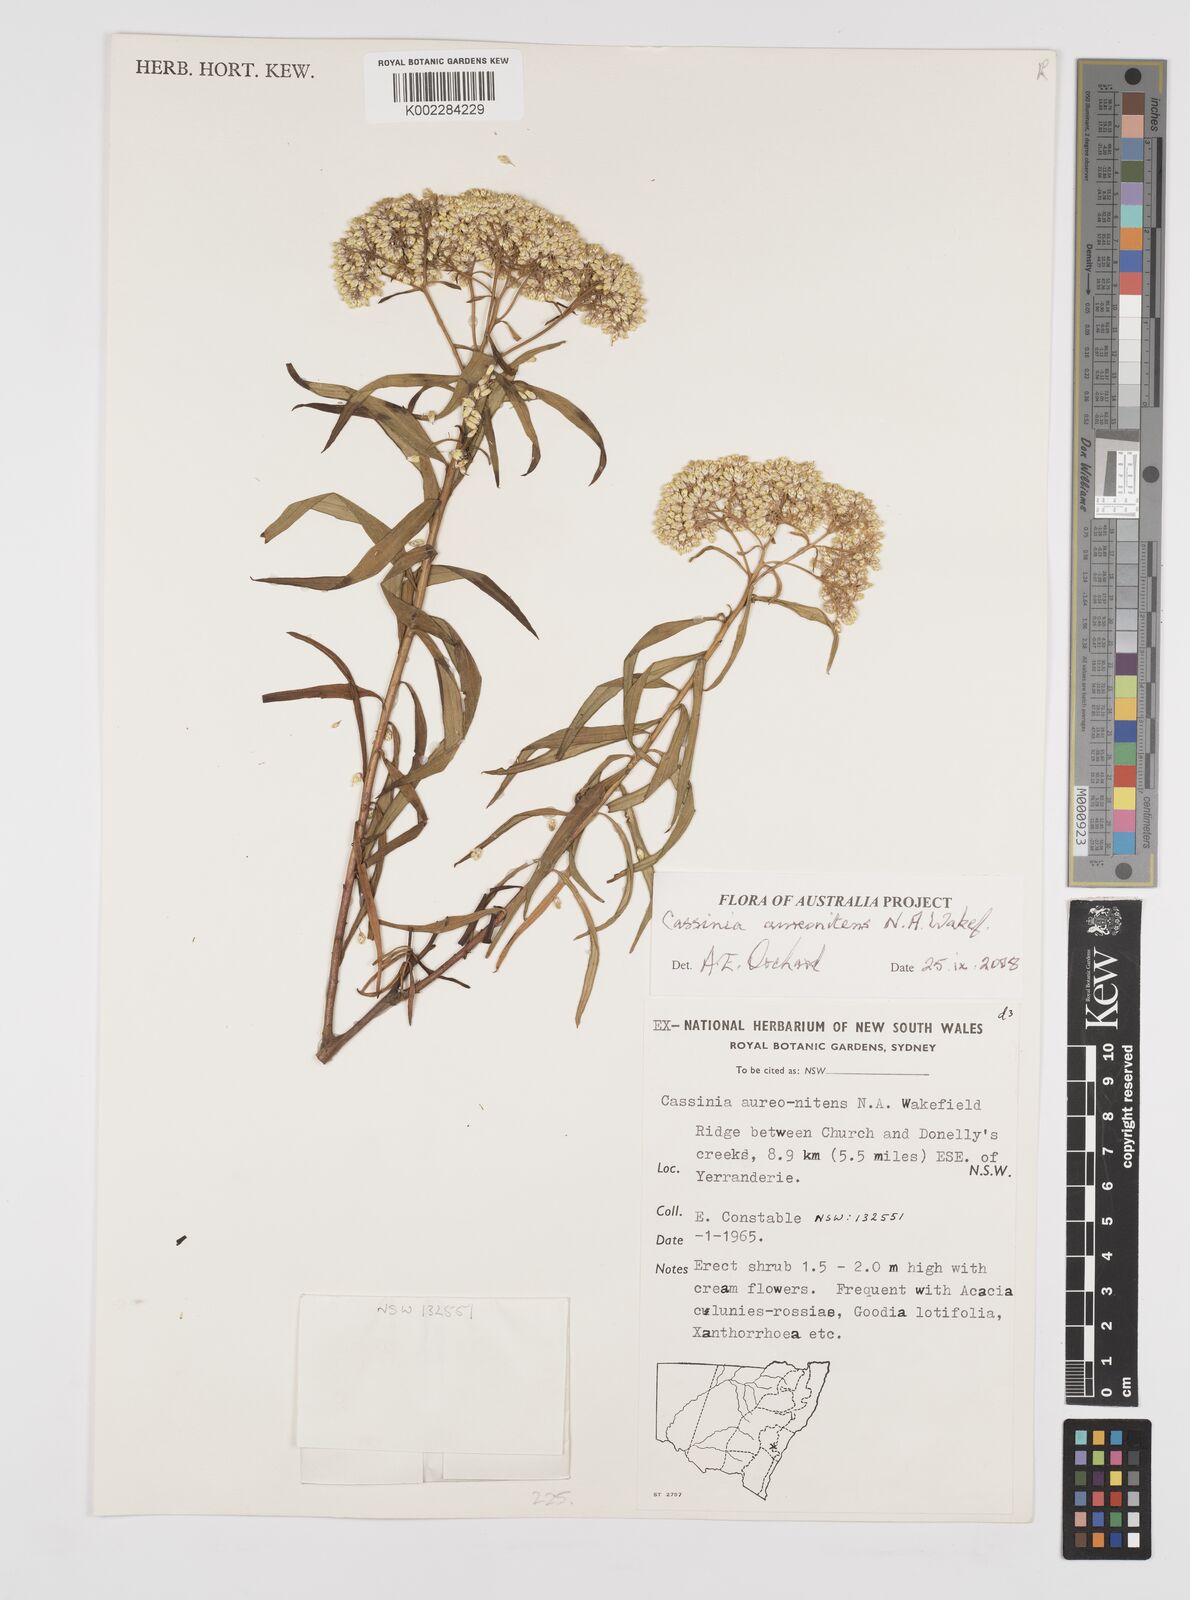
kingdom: Plantae
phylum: Tracheophyta
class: Magnoliopsida
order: Asterales
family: Asteraceae
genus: Cassinia
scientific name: Cassinia aureonitens
